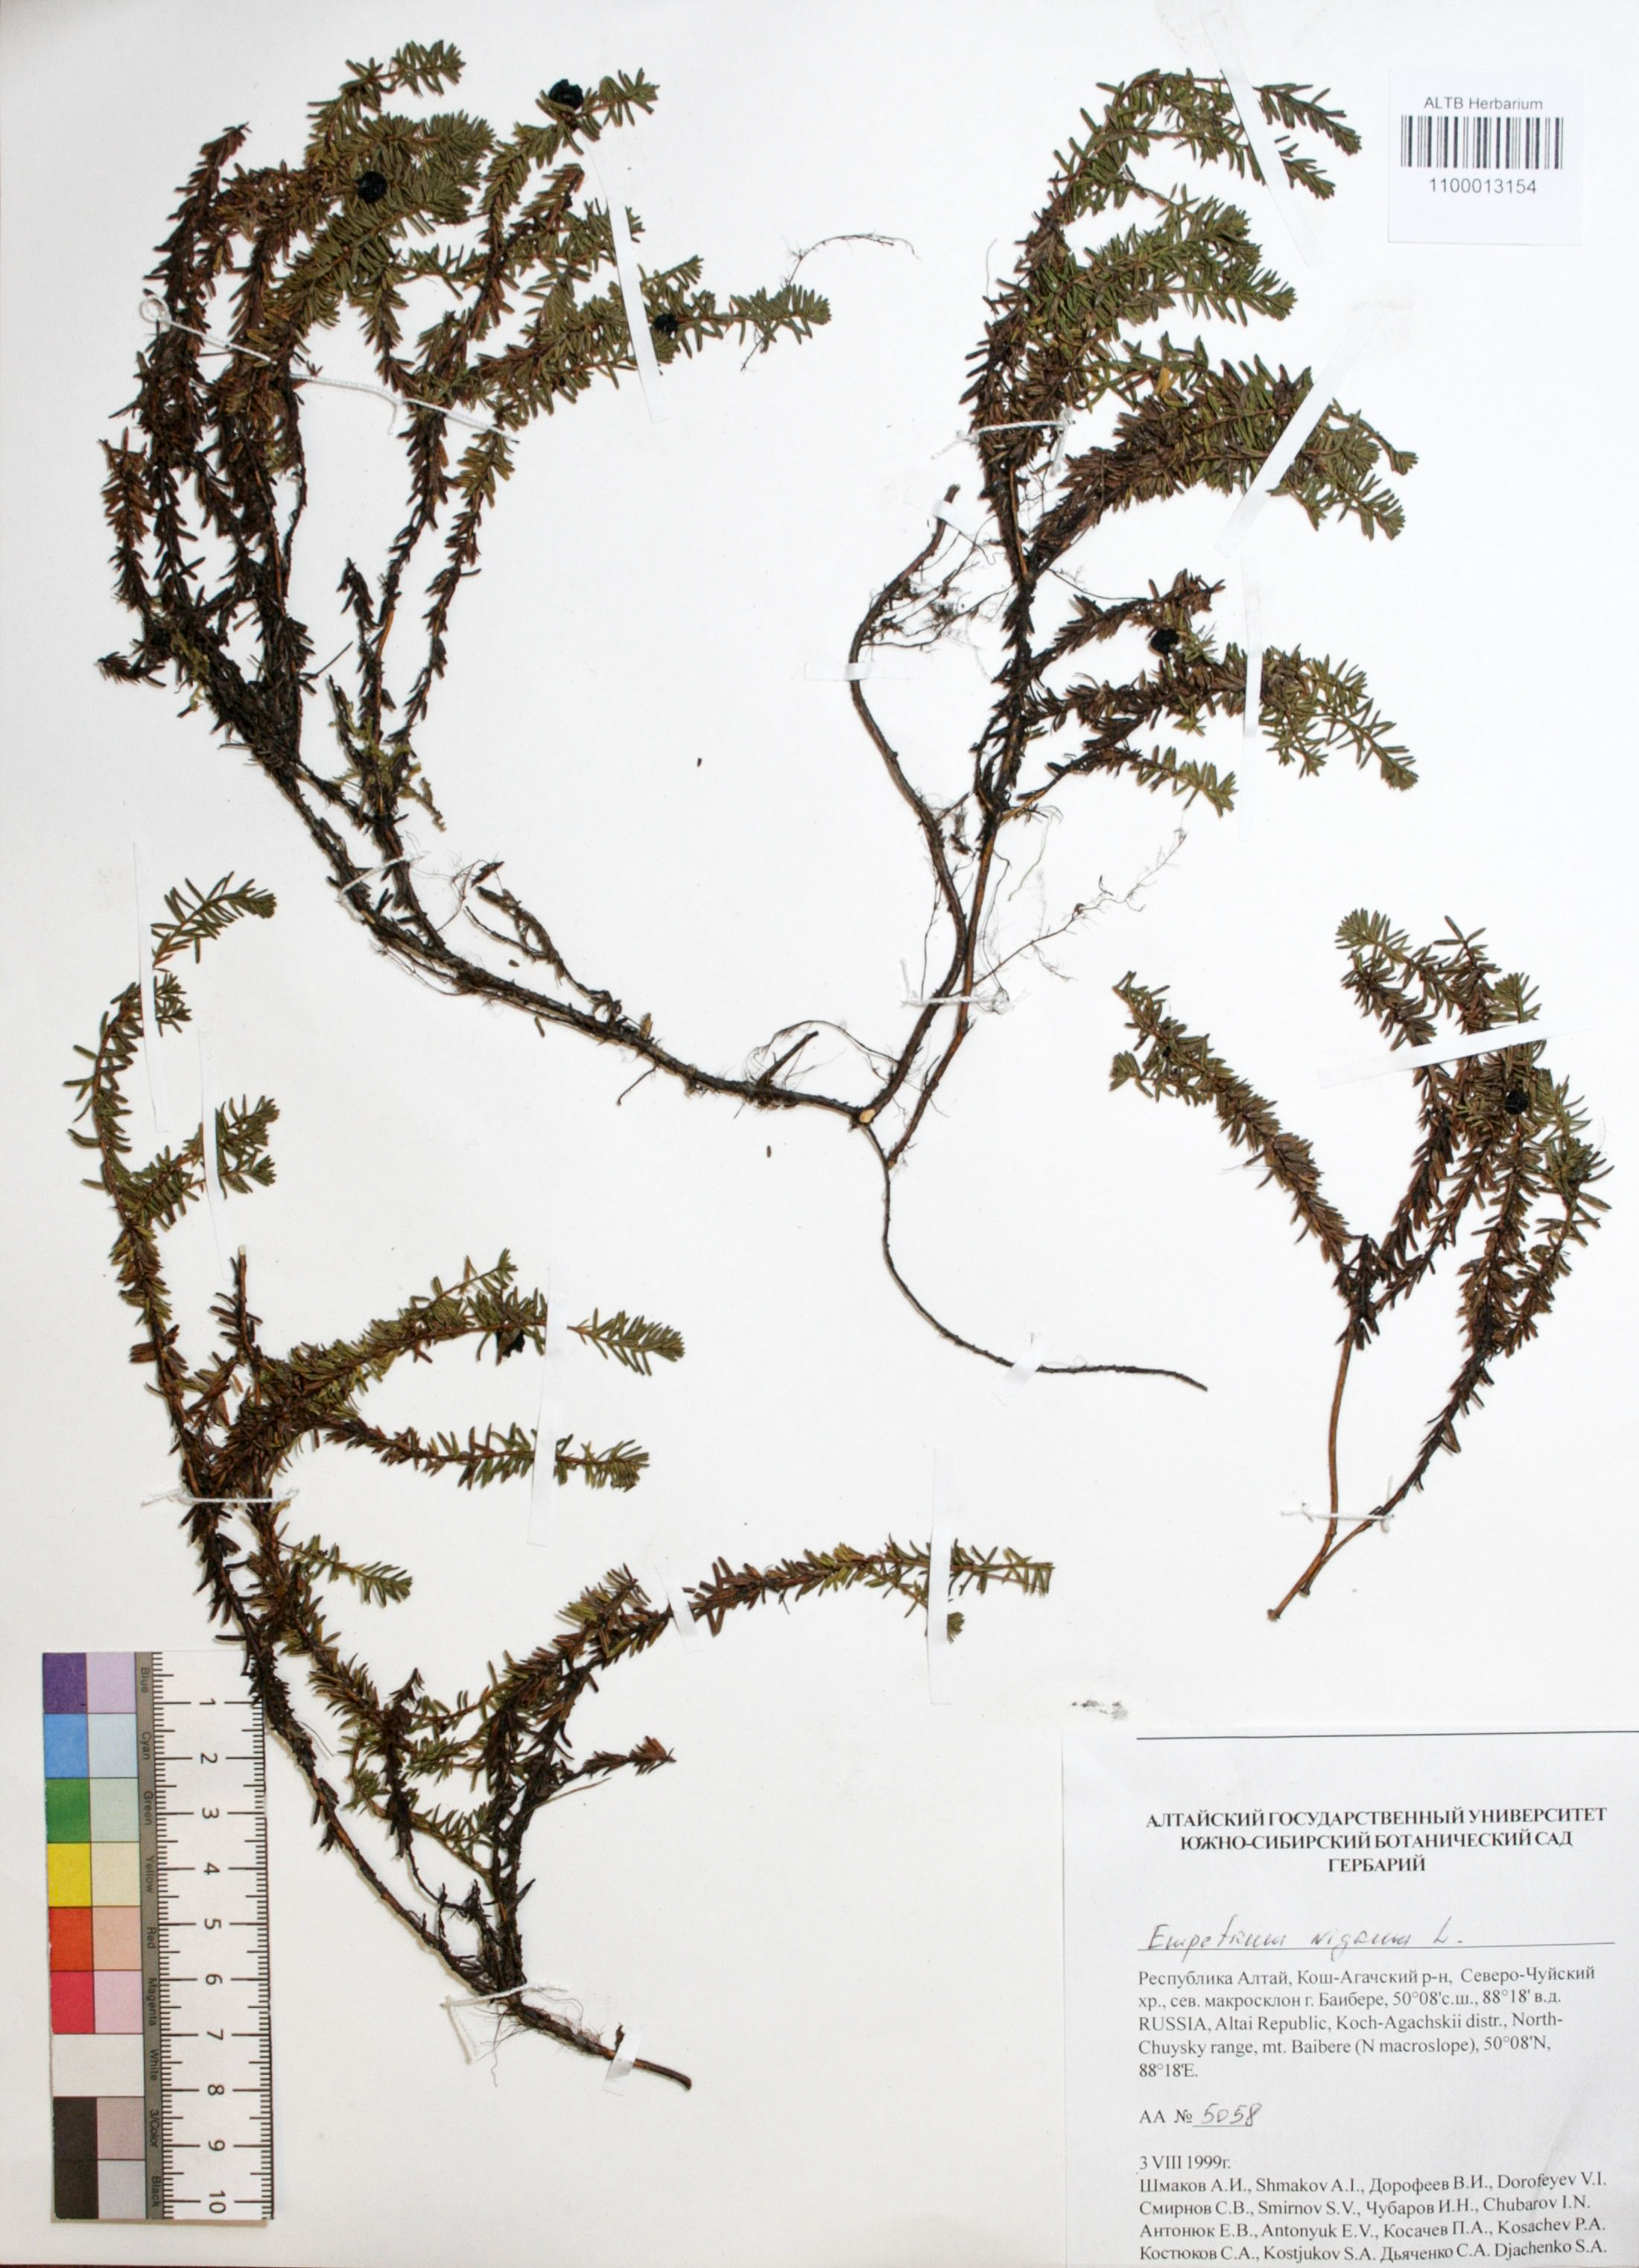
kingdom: Plantae
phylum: Tracheophyta
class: Magnoliopsida
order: Ericales
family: Ericaceae
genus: Empetrum
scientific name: Empetrum nigrum
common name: Black crowberry
